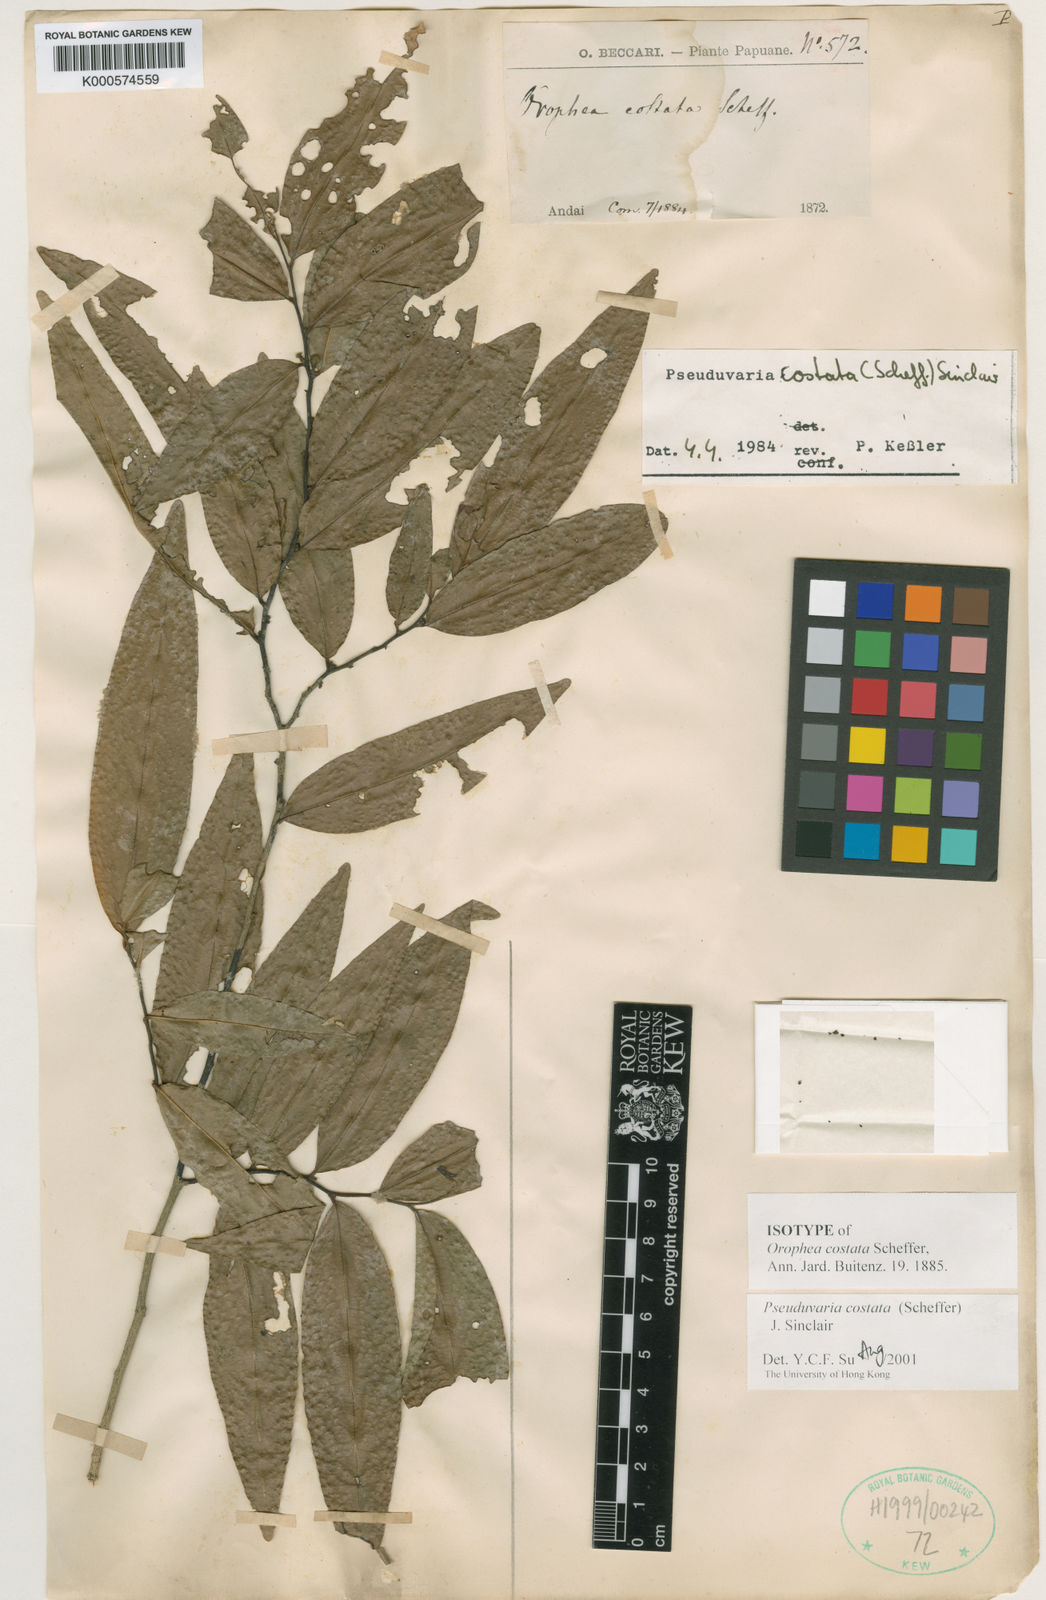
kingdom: Plantae
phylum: Tracheophyta
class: Magnoliopsida
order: Magnoliales
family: Annonaceae
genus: Pseuduvaria
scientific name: Pseuduvaria costata
